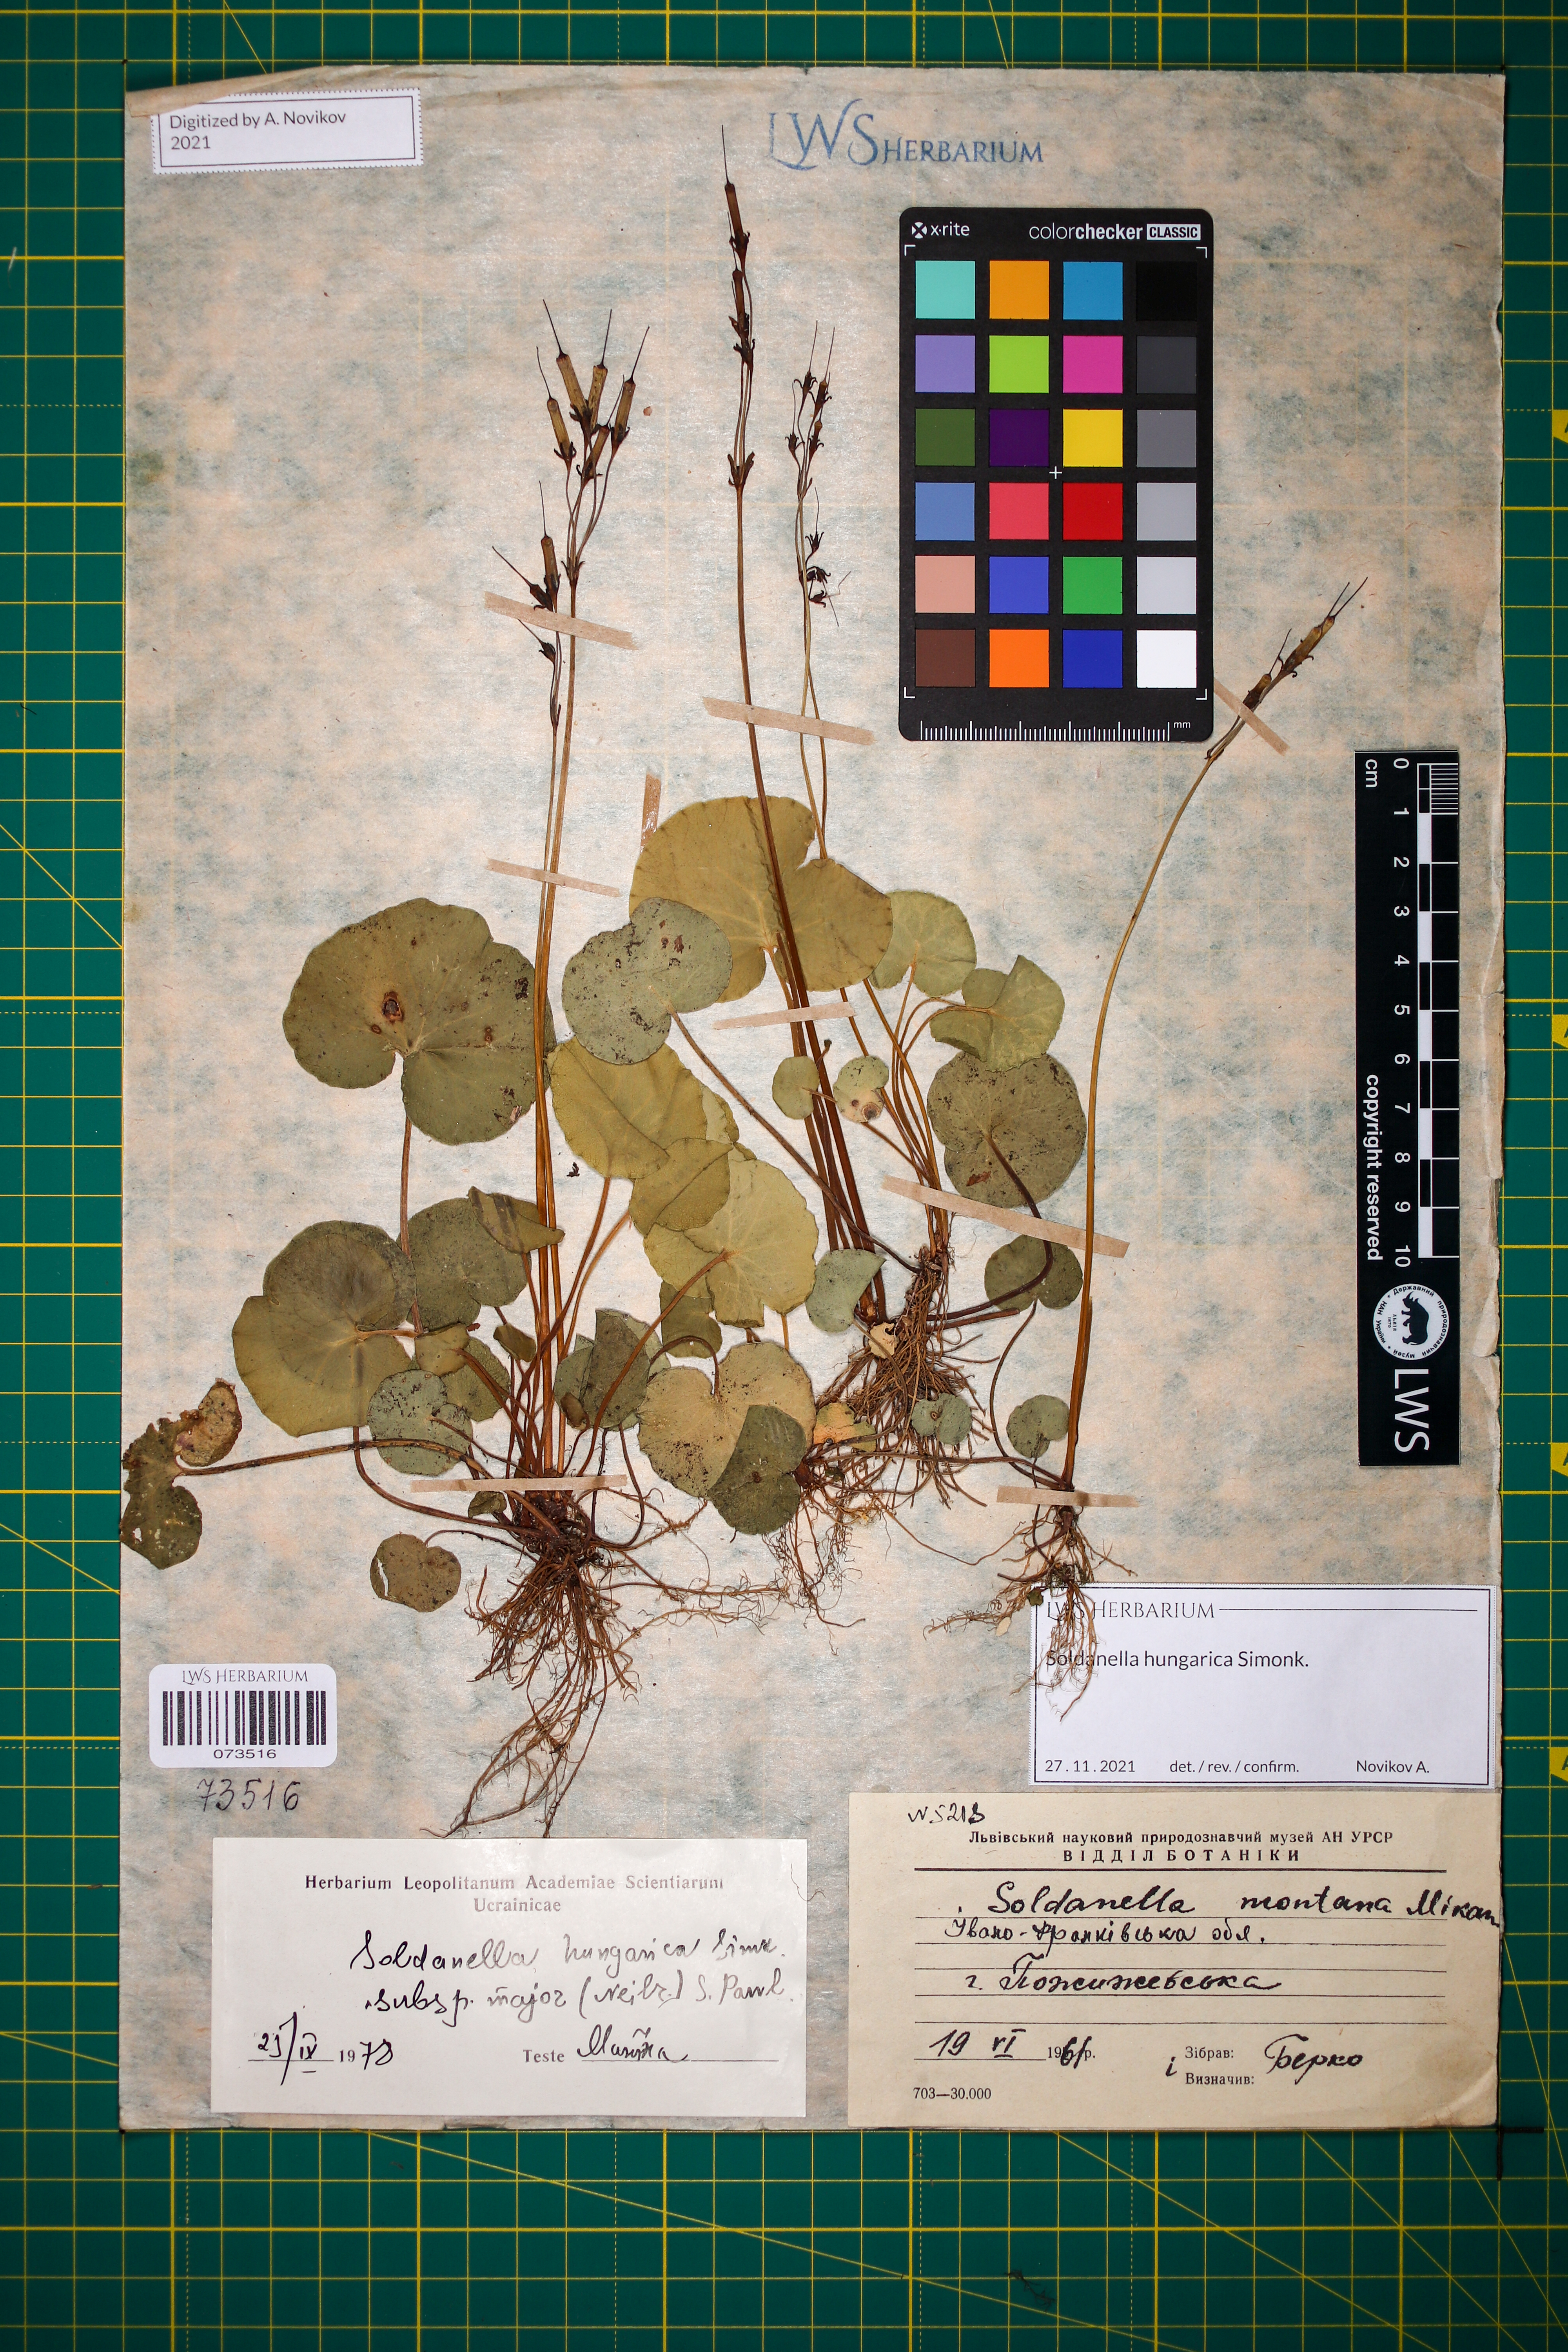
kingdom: Plantae
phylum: Tracheophyta
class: Magnoliopsida
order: Ericales
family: Primulaceae
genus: Soldanella
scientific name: Soldanella hungarica
